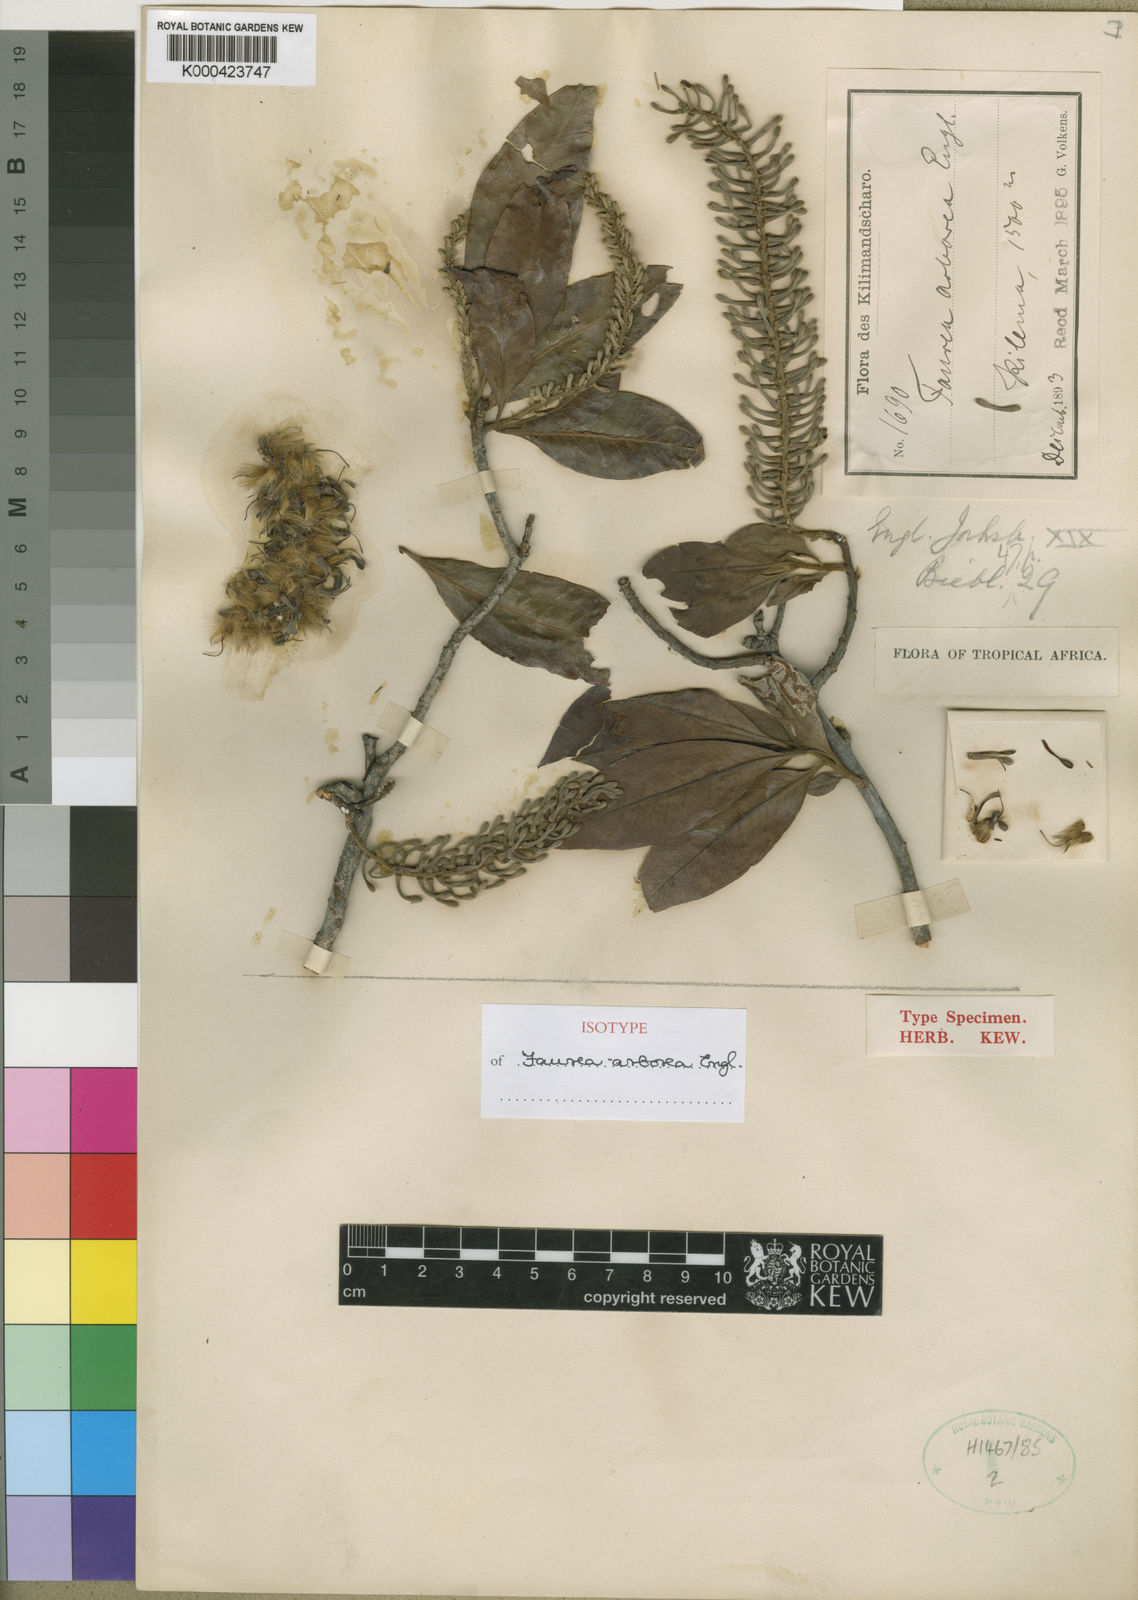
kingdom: Plantae
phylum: Tracheophyta
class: Magnoliopsida
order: Proteales
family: Proteaceae
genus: Faurea
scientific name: Faurea arborea
